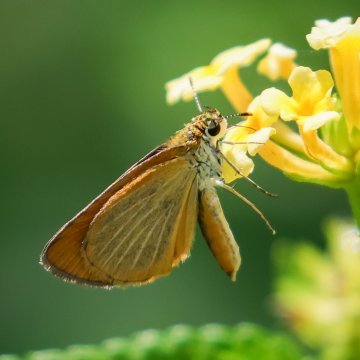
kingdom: Animalia
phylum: Arthropoda
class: Insecta
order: Lepidoptera
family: Hesperiidae
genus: Ancyloxypha
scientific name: Ancyloxypha numitor
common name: Least Skipper
